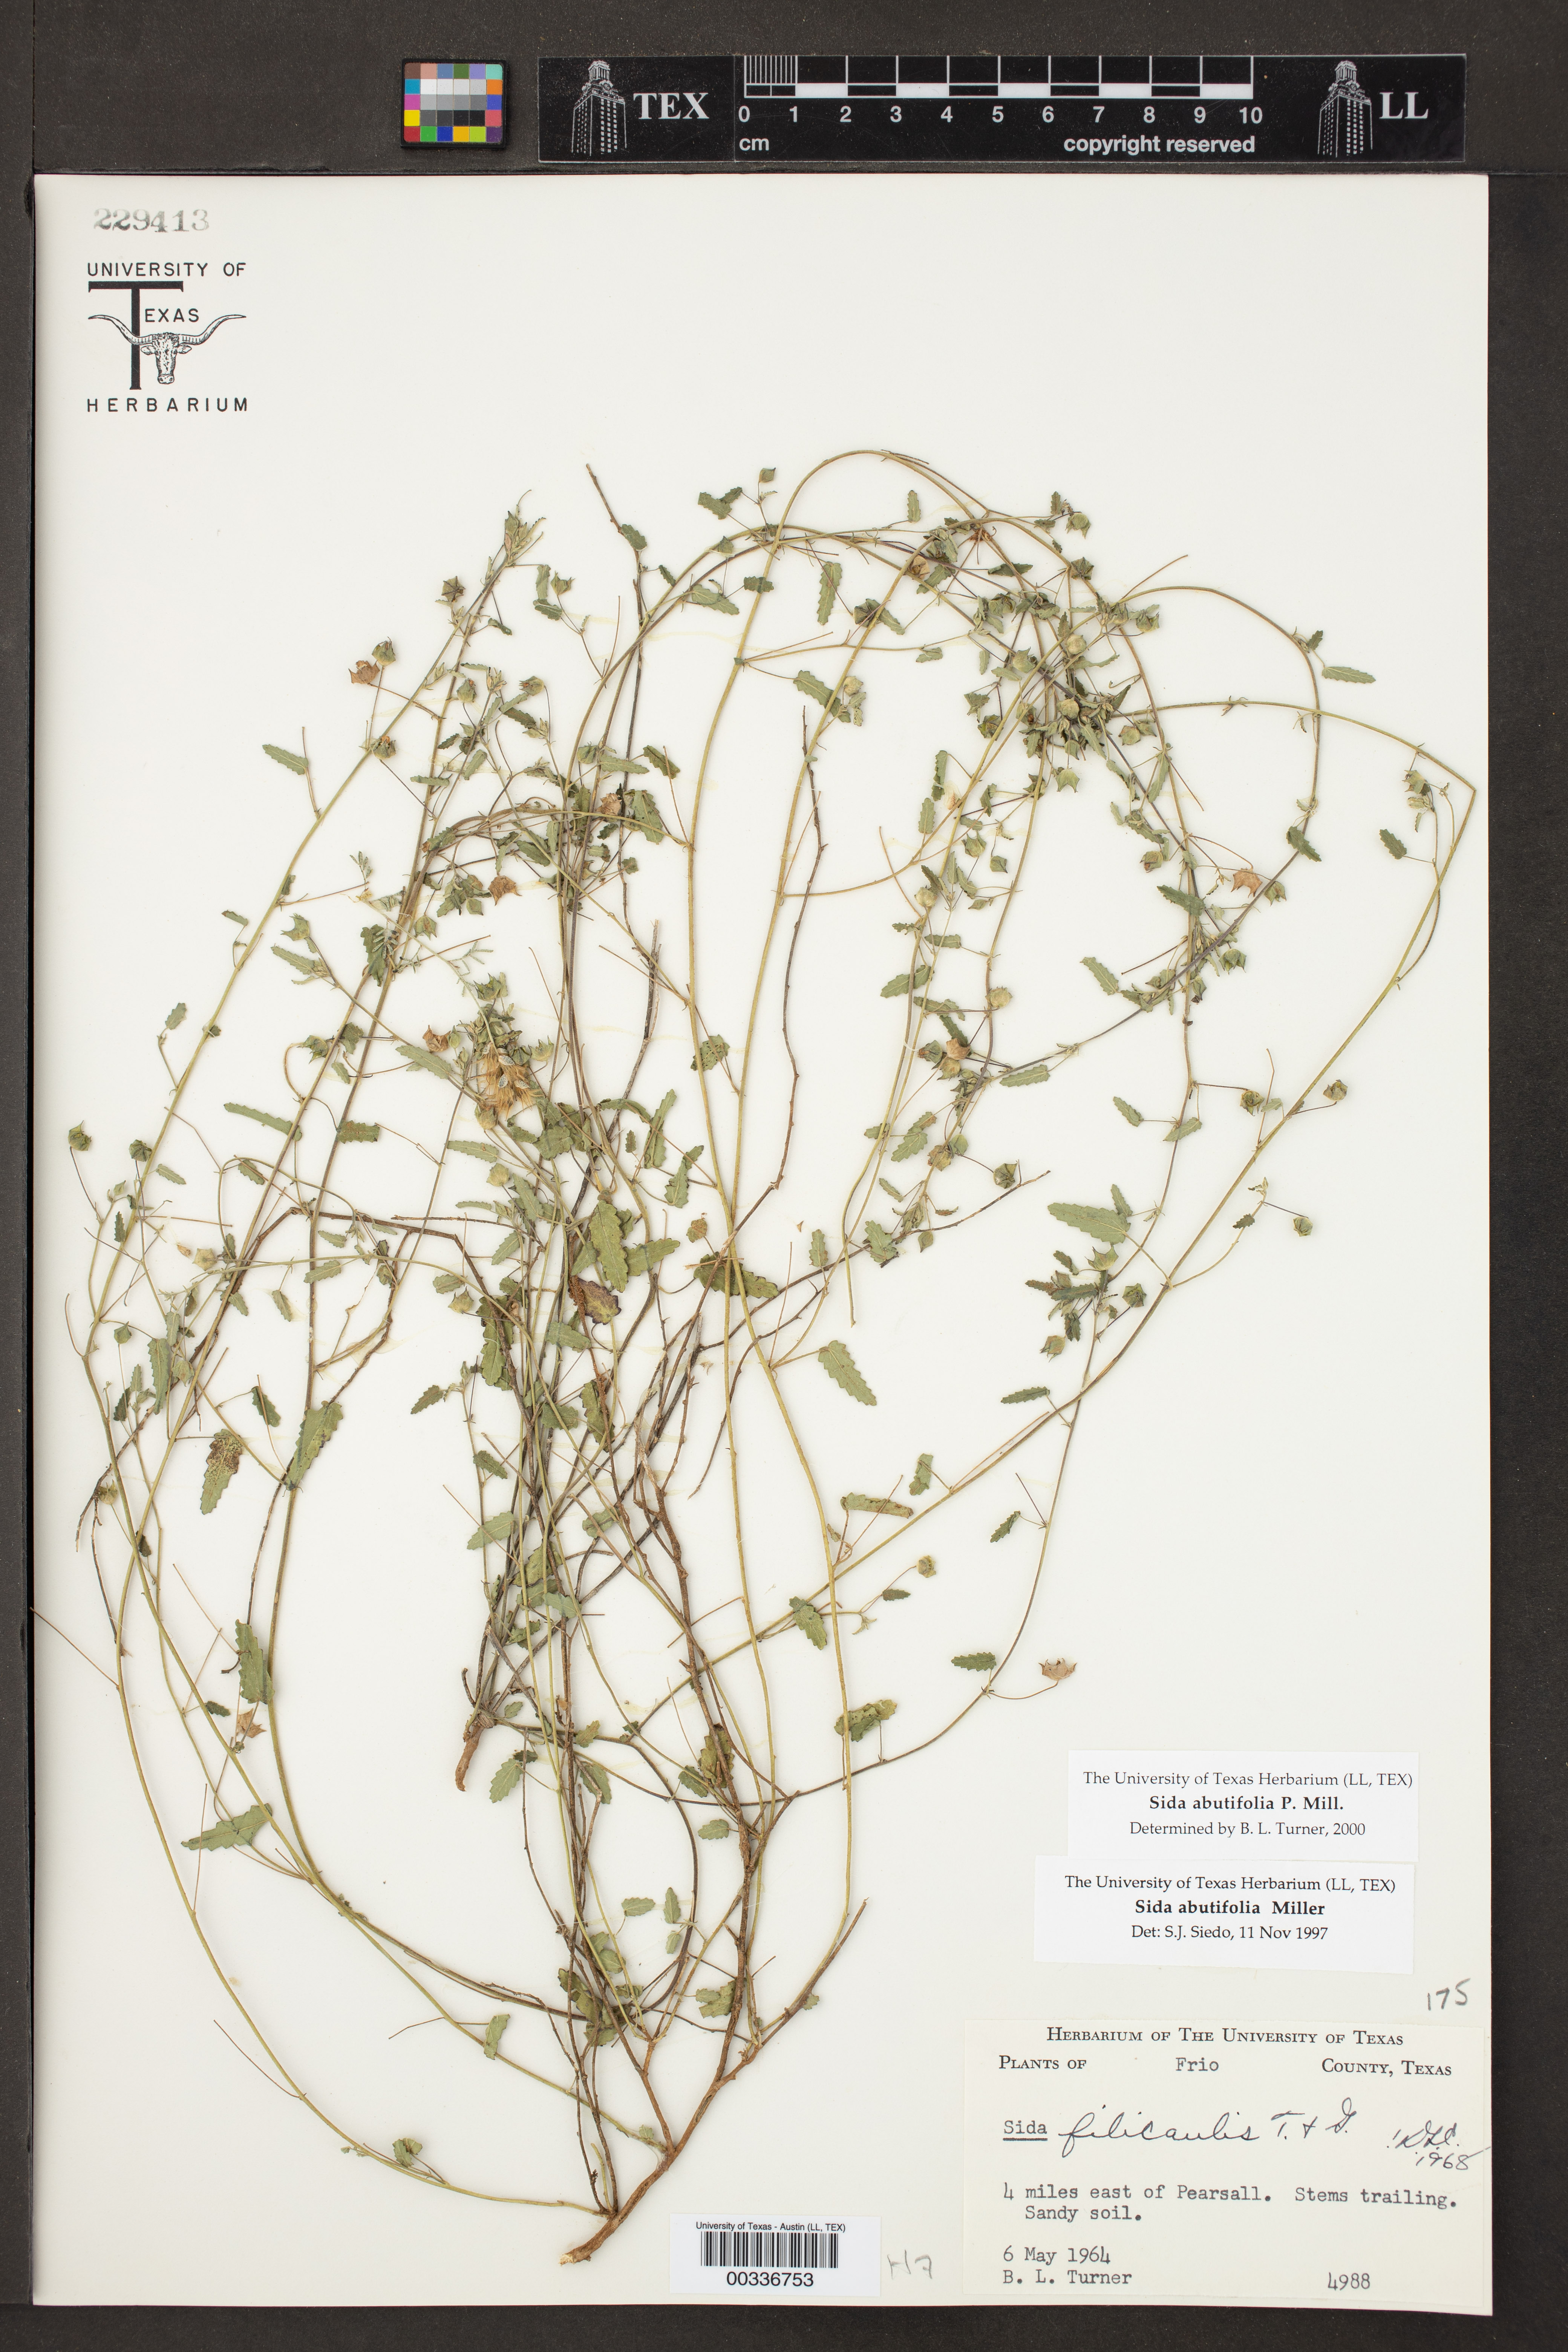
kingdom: Plantae
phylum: Tracheophyta
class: Magnoliopsida
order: Malvales
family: Malvaceae
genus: Sida
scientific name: Sida abutilifolia
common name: Spreading fanpetals
